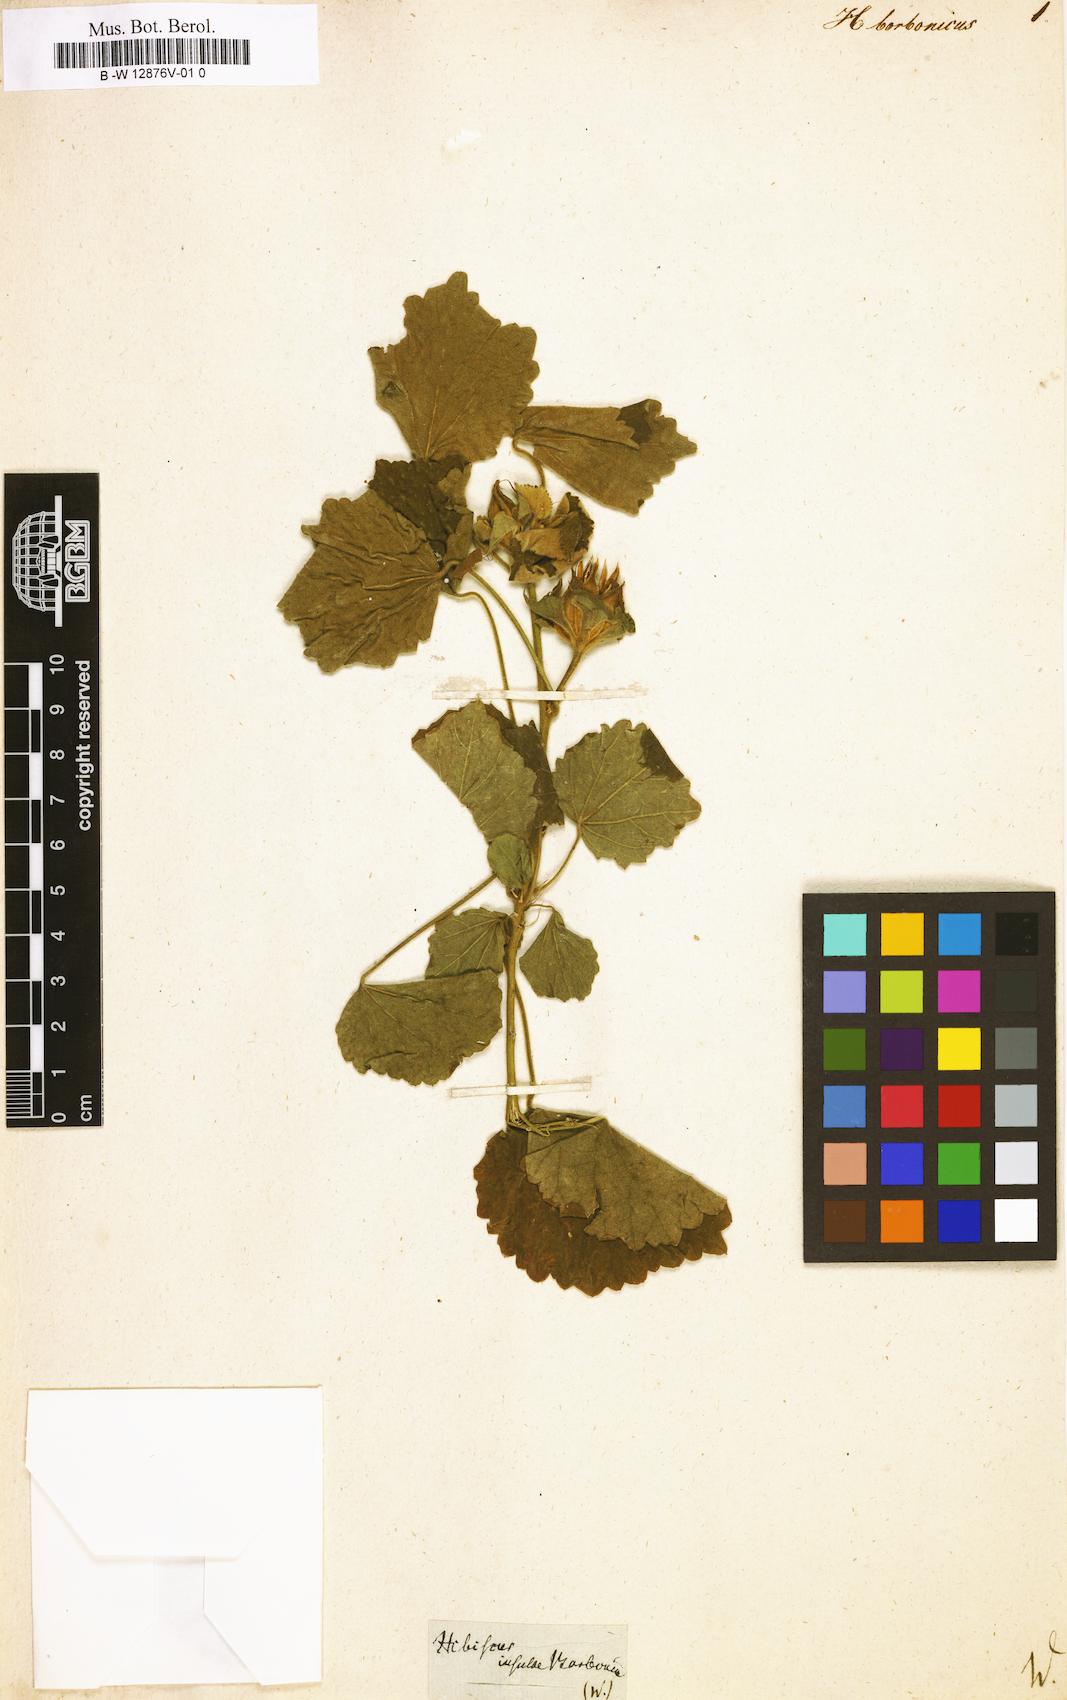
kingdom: Plantae
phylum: Tracheophyta
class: Magnoliopsida
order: Malvales
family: Malvaceae
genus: Hibiscus
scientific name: Hibiscus borbonicus
